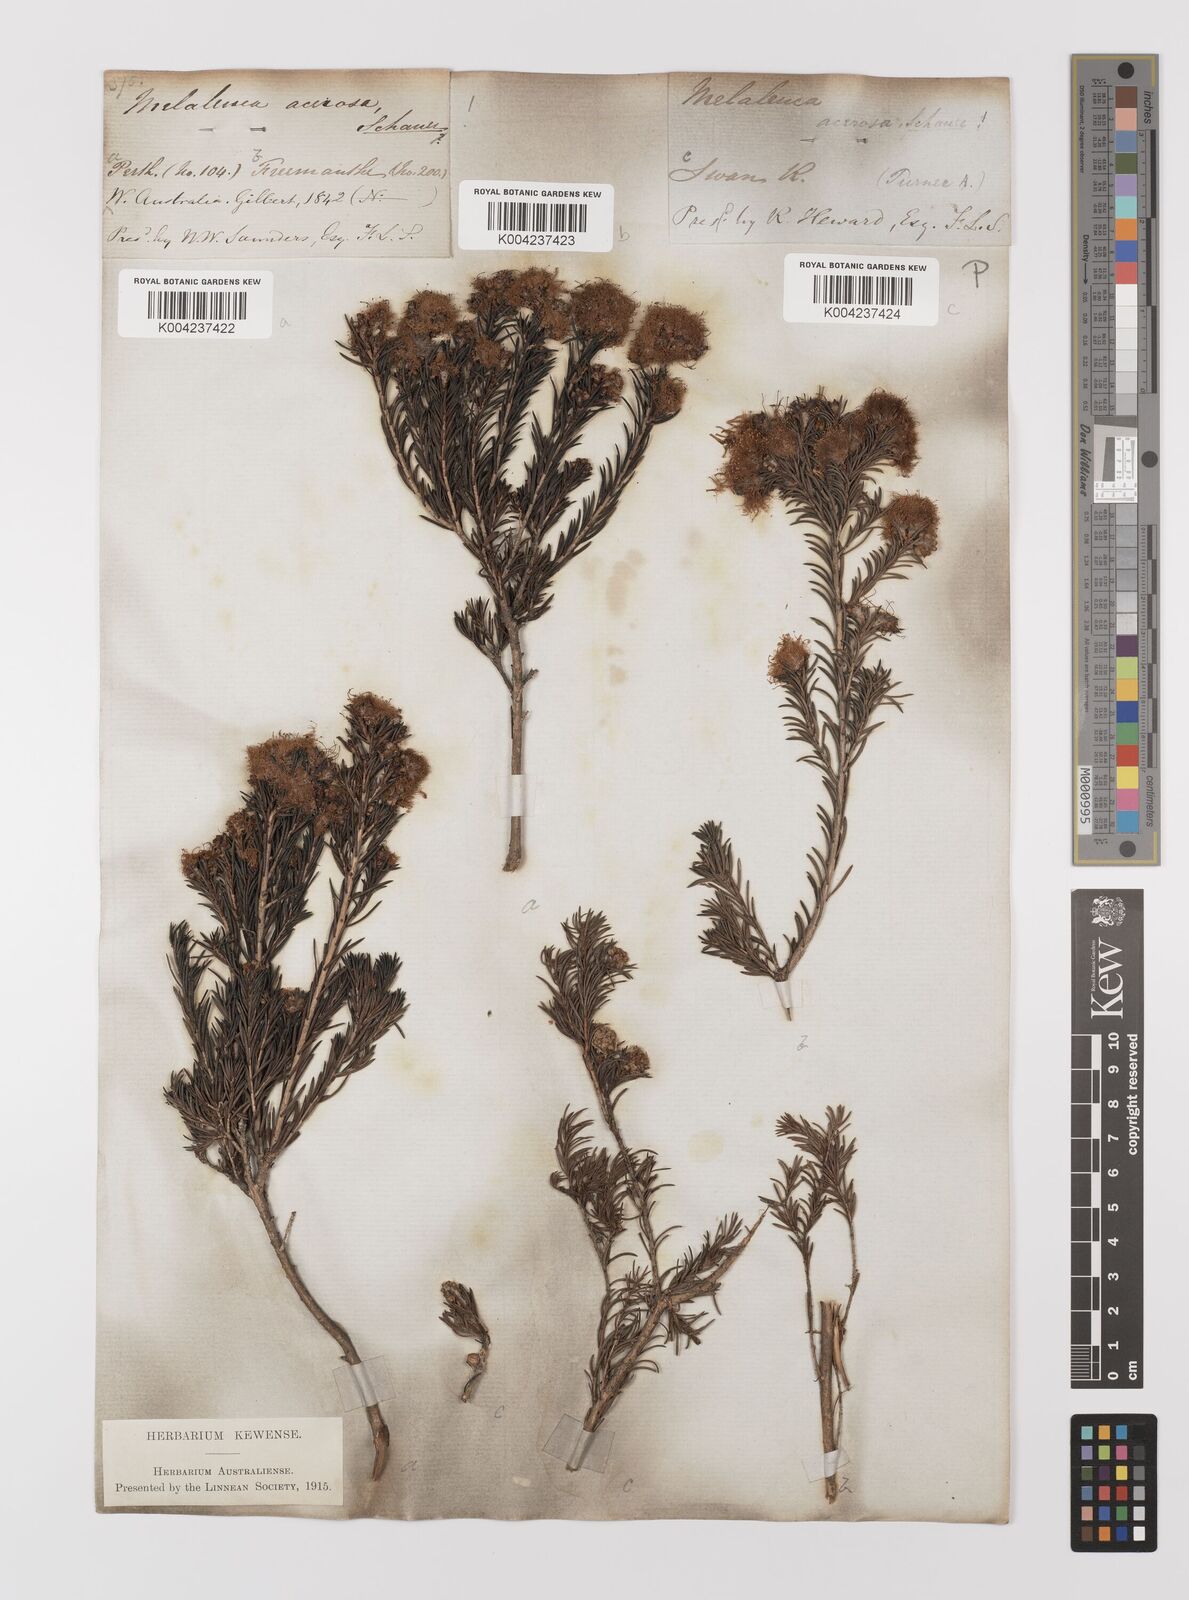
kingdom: Plantae
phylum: Tracheophyta
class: Magnoliopsida
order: Myrtales
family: Myrtaceae
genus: Melaleuca
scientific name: Melaleuca
